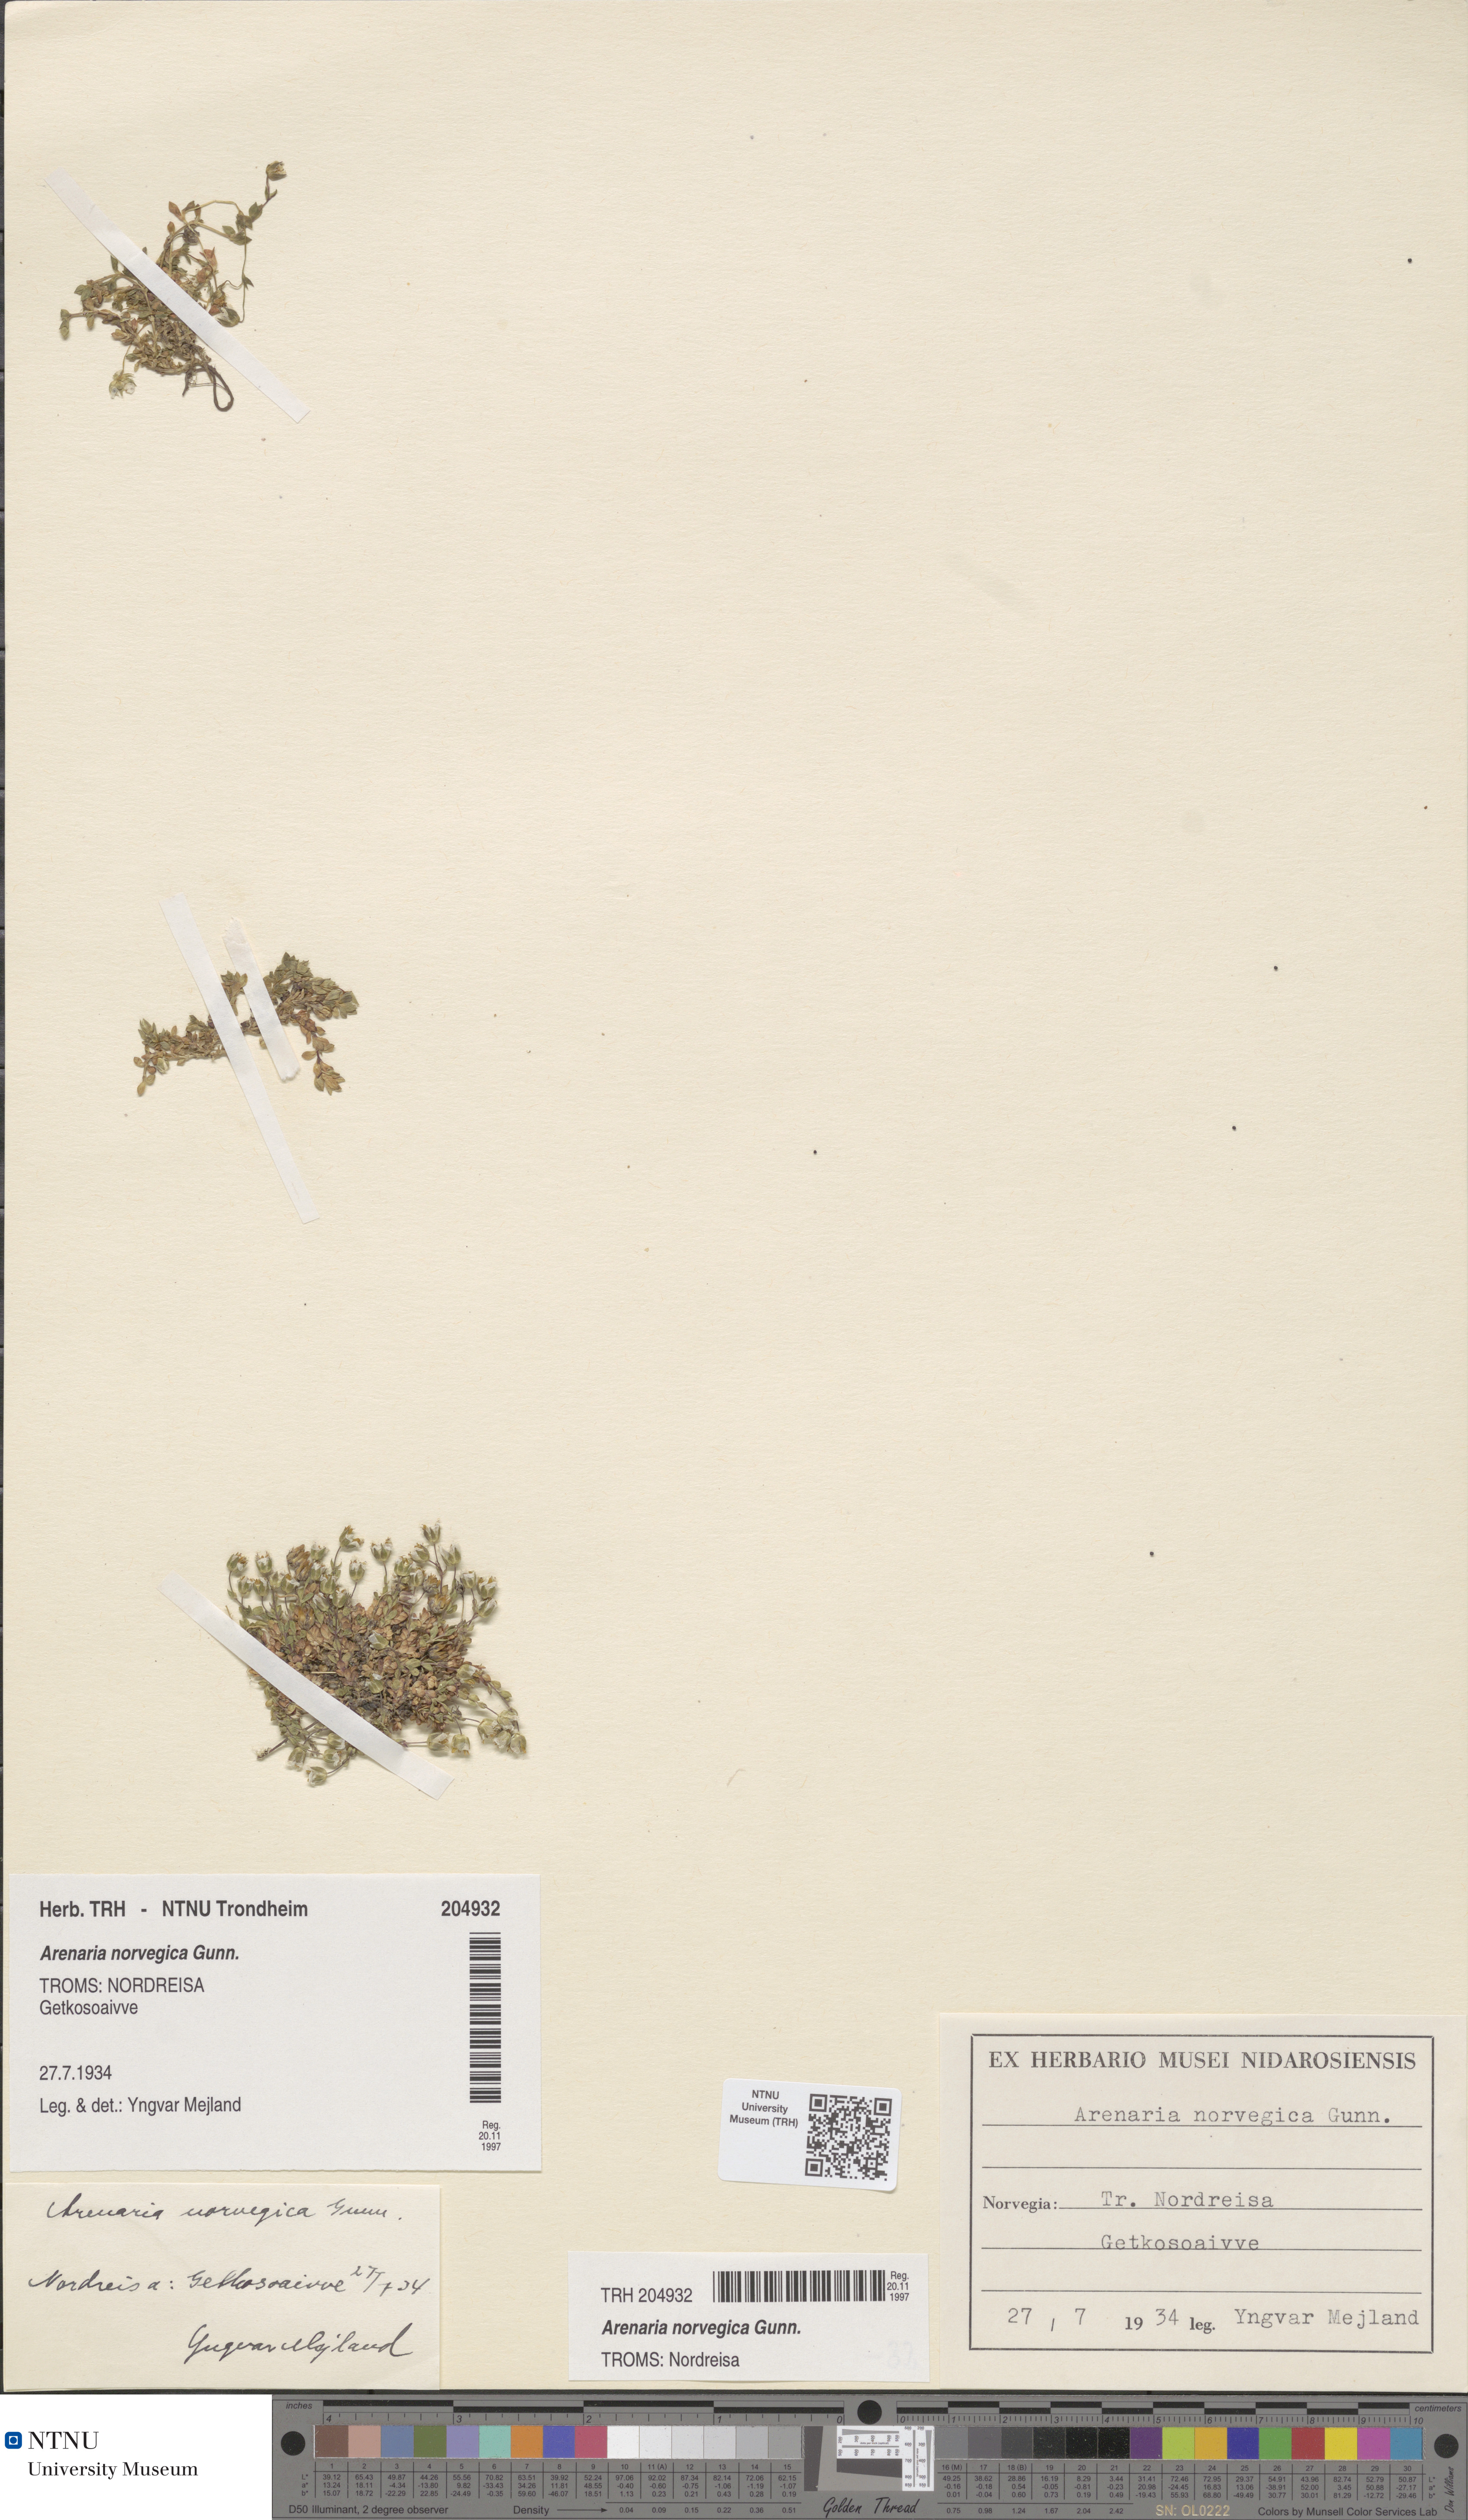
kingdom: Plantae
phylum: Tracheophyta
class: Magnoliopsida
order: Caryophyllales
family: Caryophyllaceae
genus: Arenaria
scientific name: Arenaria norvegica
